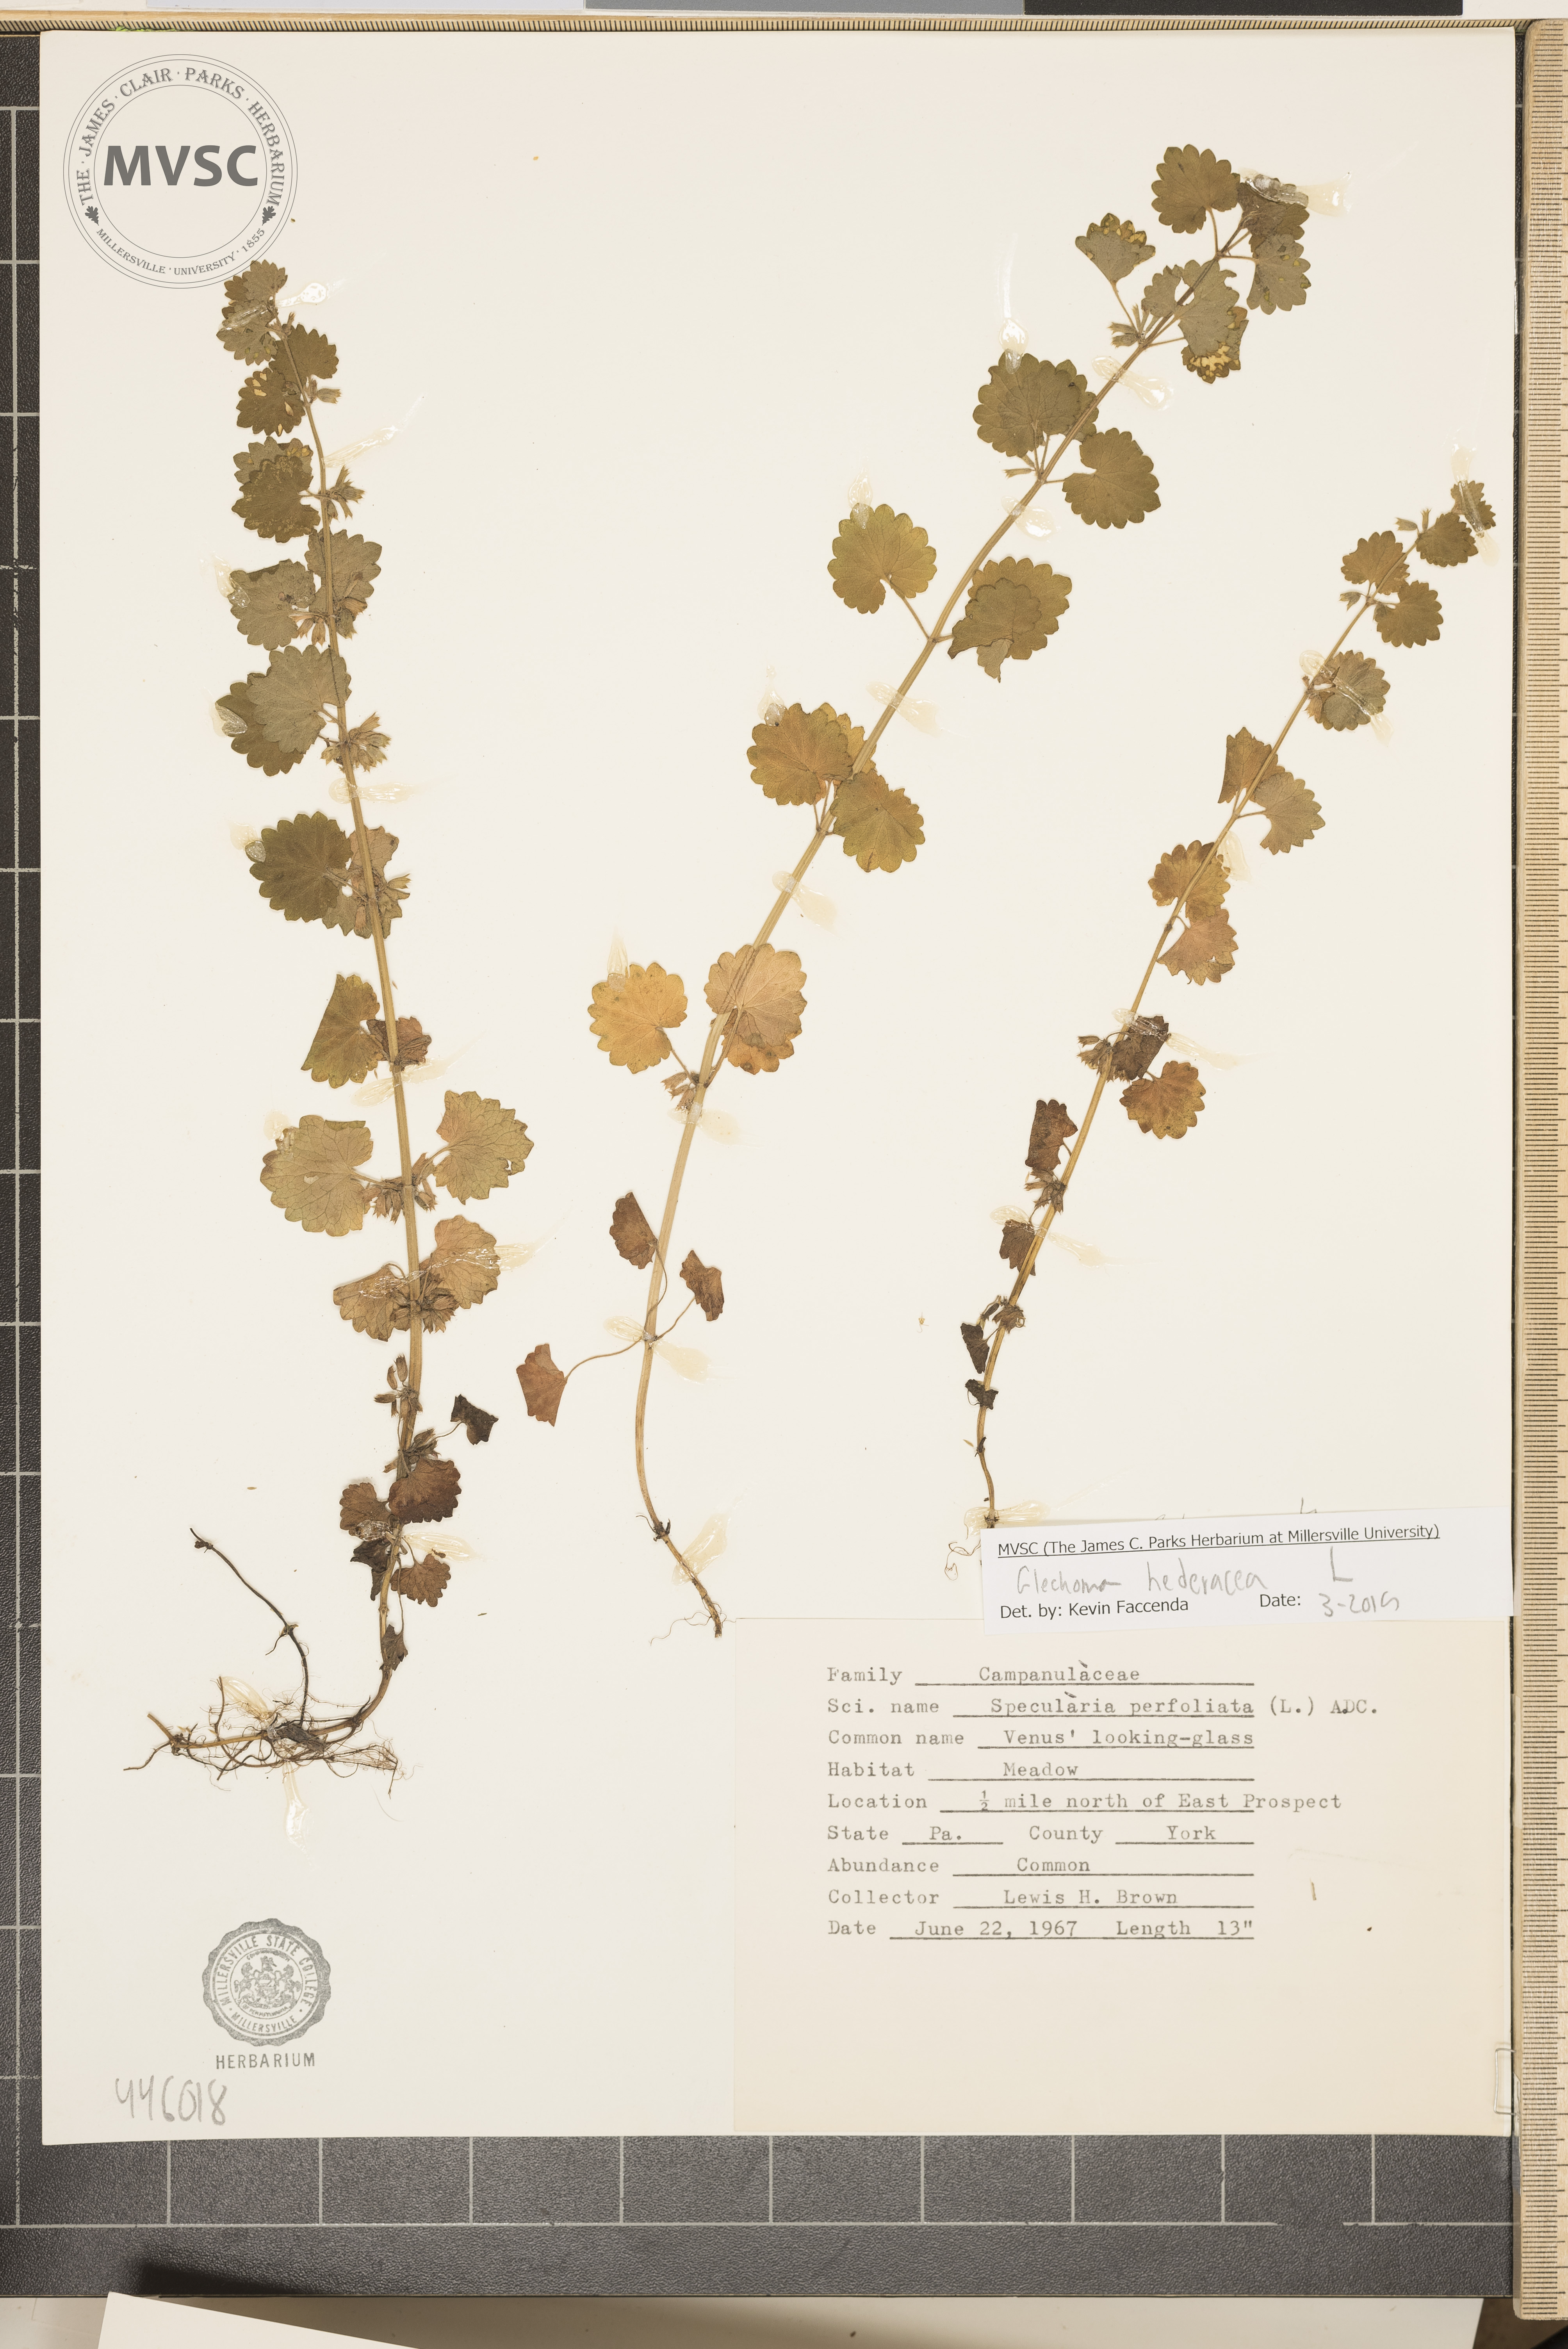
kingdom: Plantae
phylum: Tracheophyta
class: Magnoliopsida
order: Lamiales
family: Lamiaceae
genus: Glechoma
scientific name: Glechoma hederacea
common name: Ground ivy
